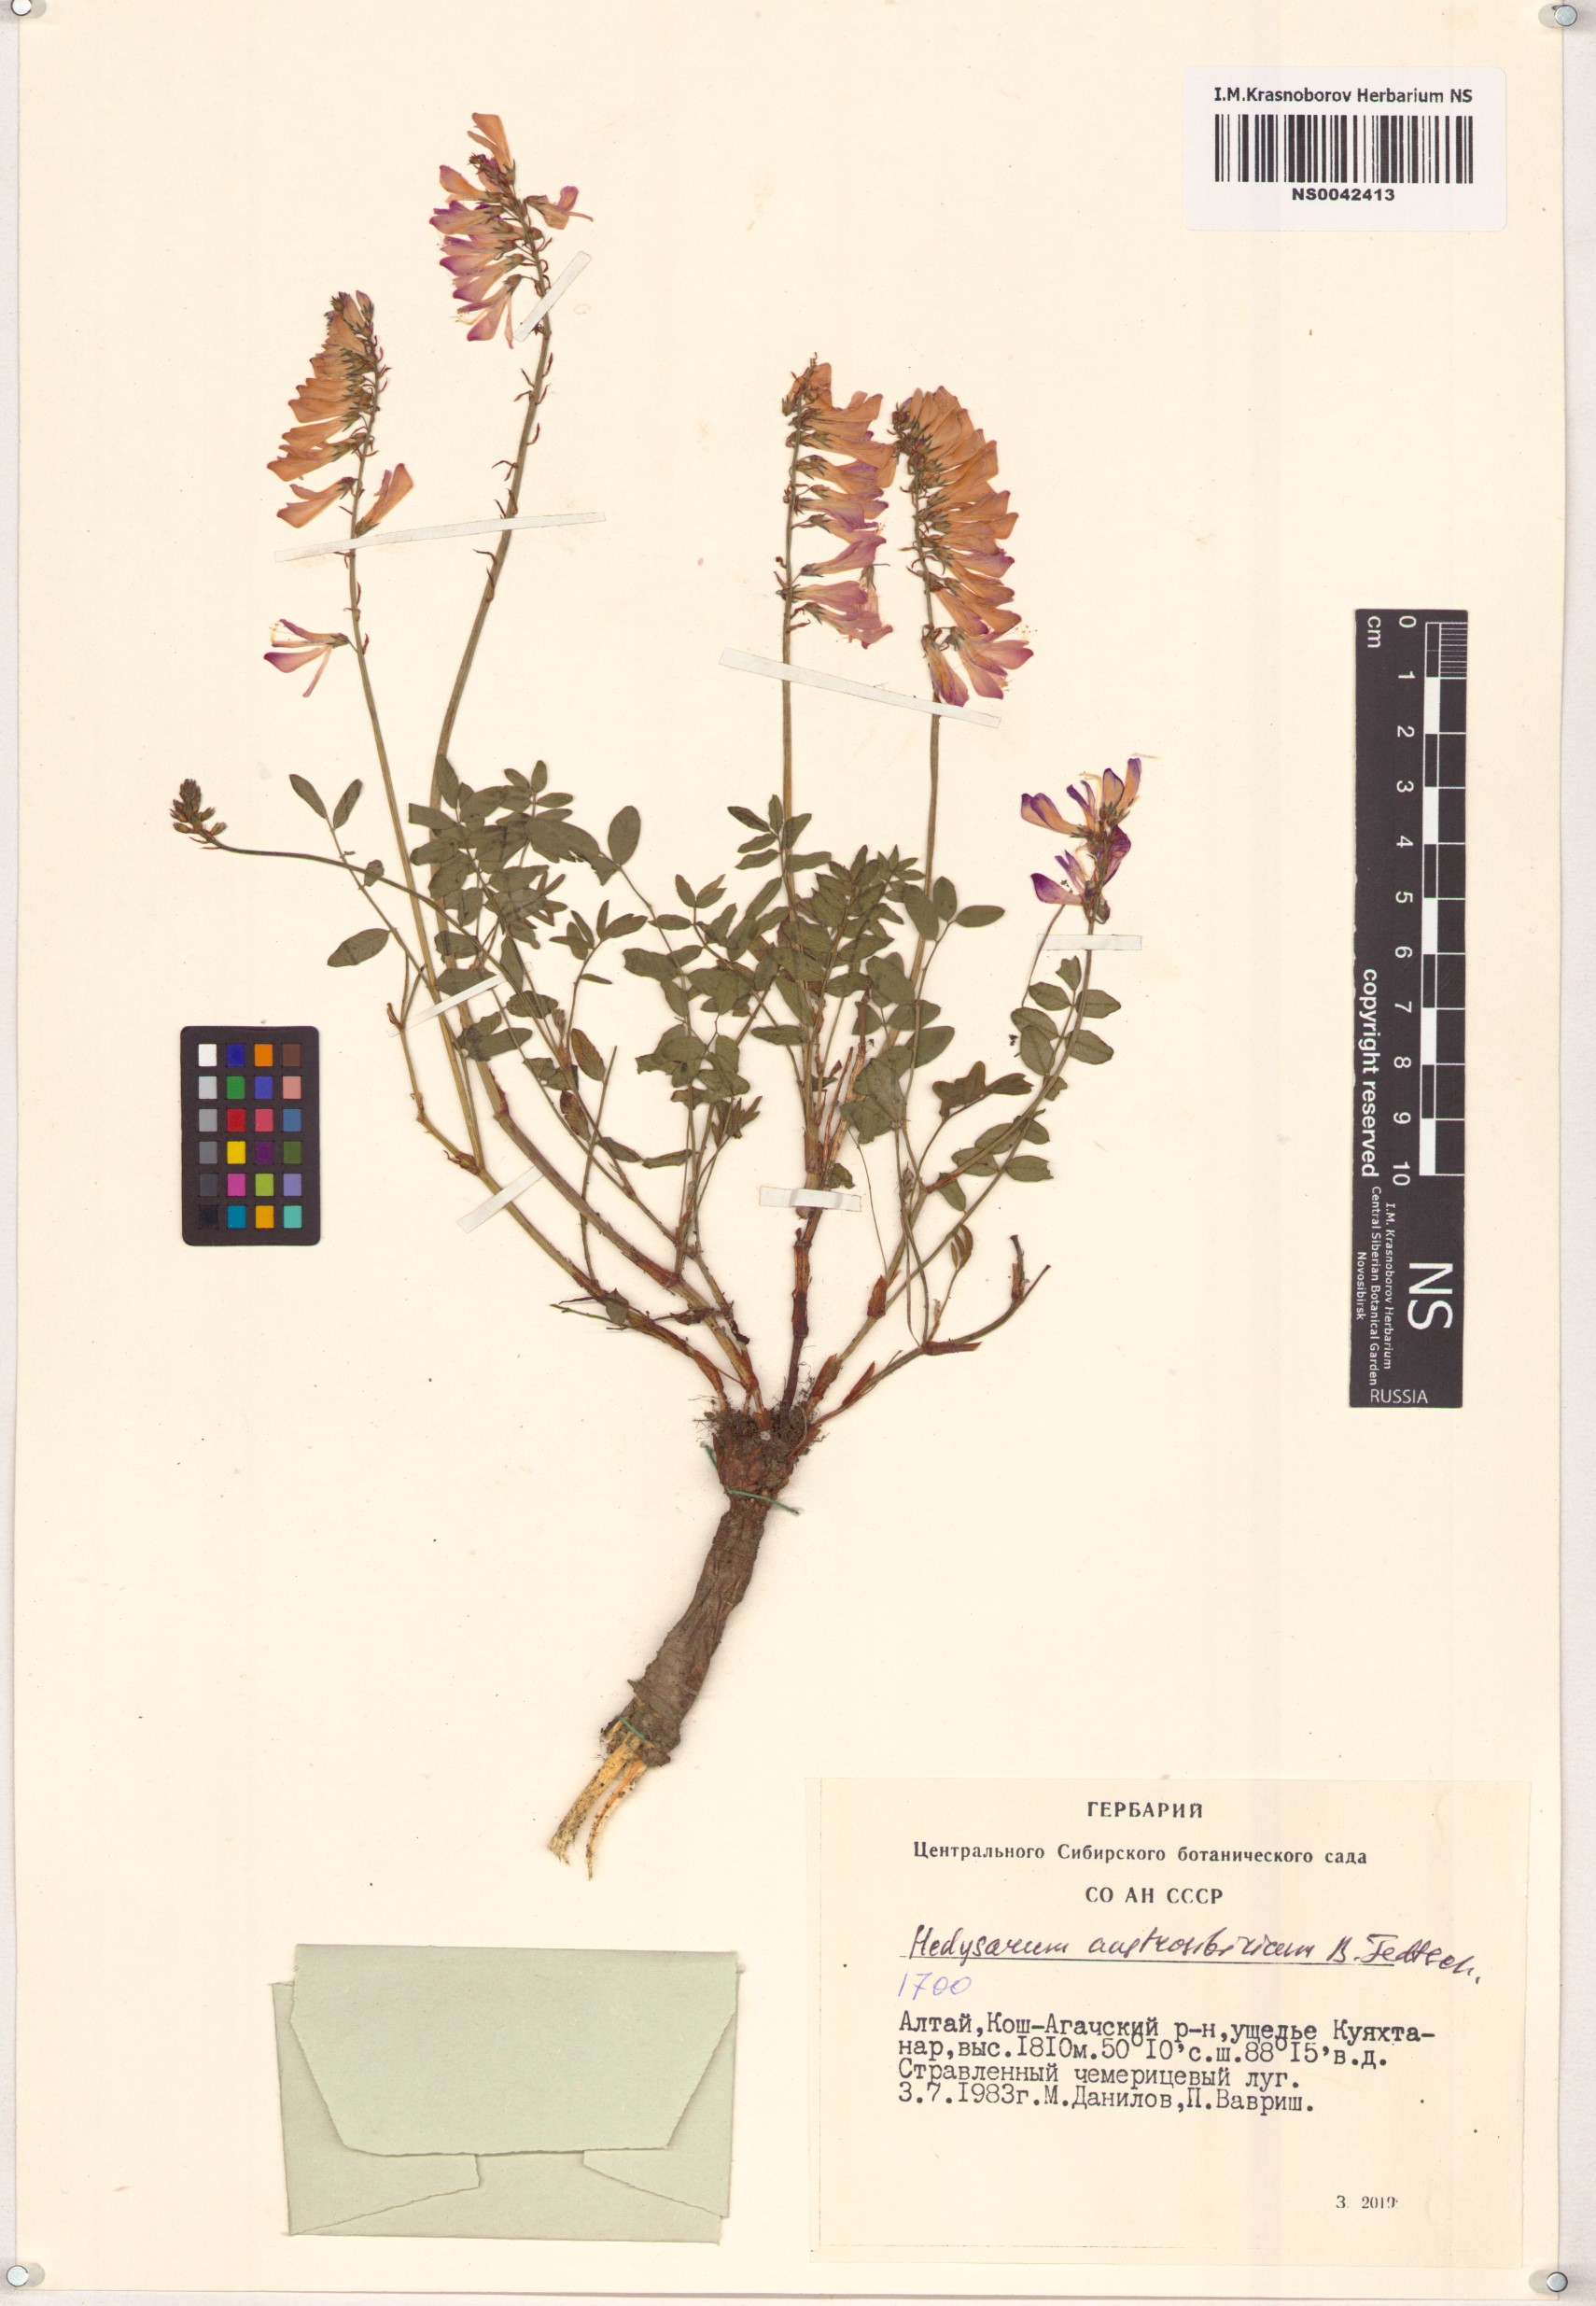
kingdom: Plantae
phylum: Tracheophyta
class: Magnoliopsida
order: Fabales
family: Fabaceae
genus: Hedysarum
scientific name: Hedysarum neglectum
